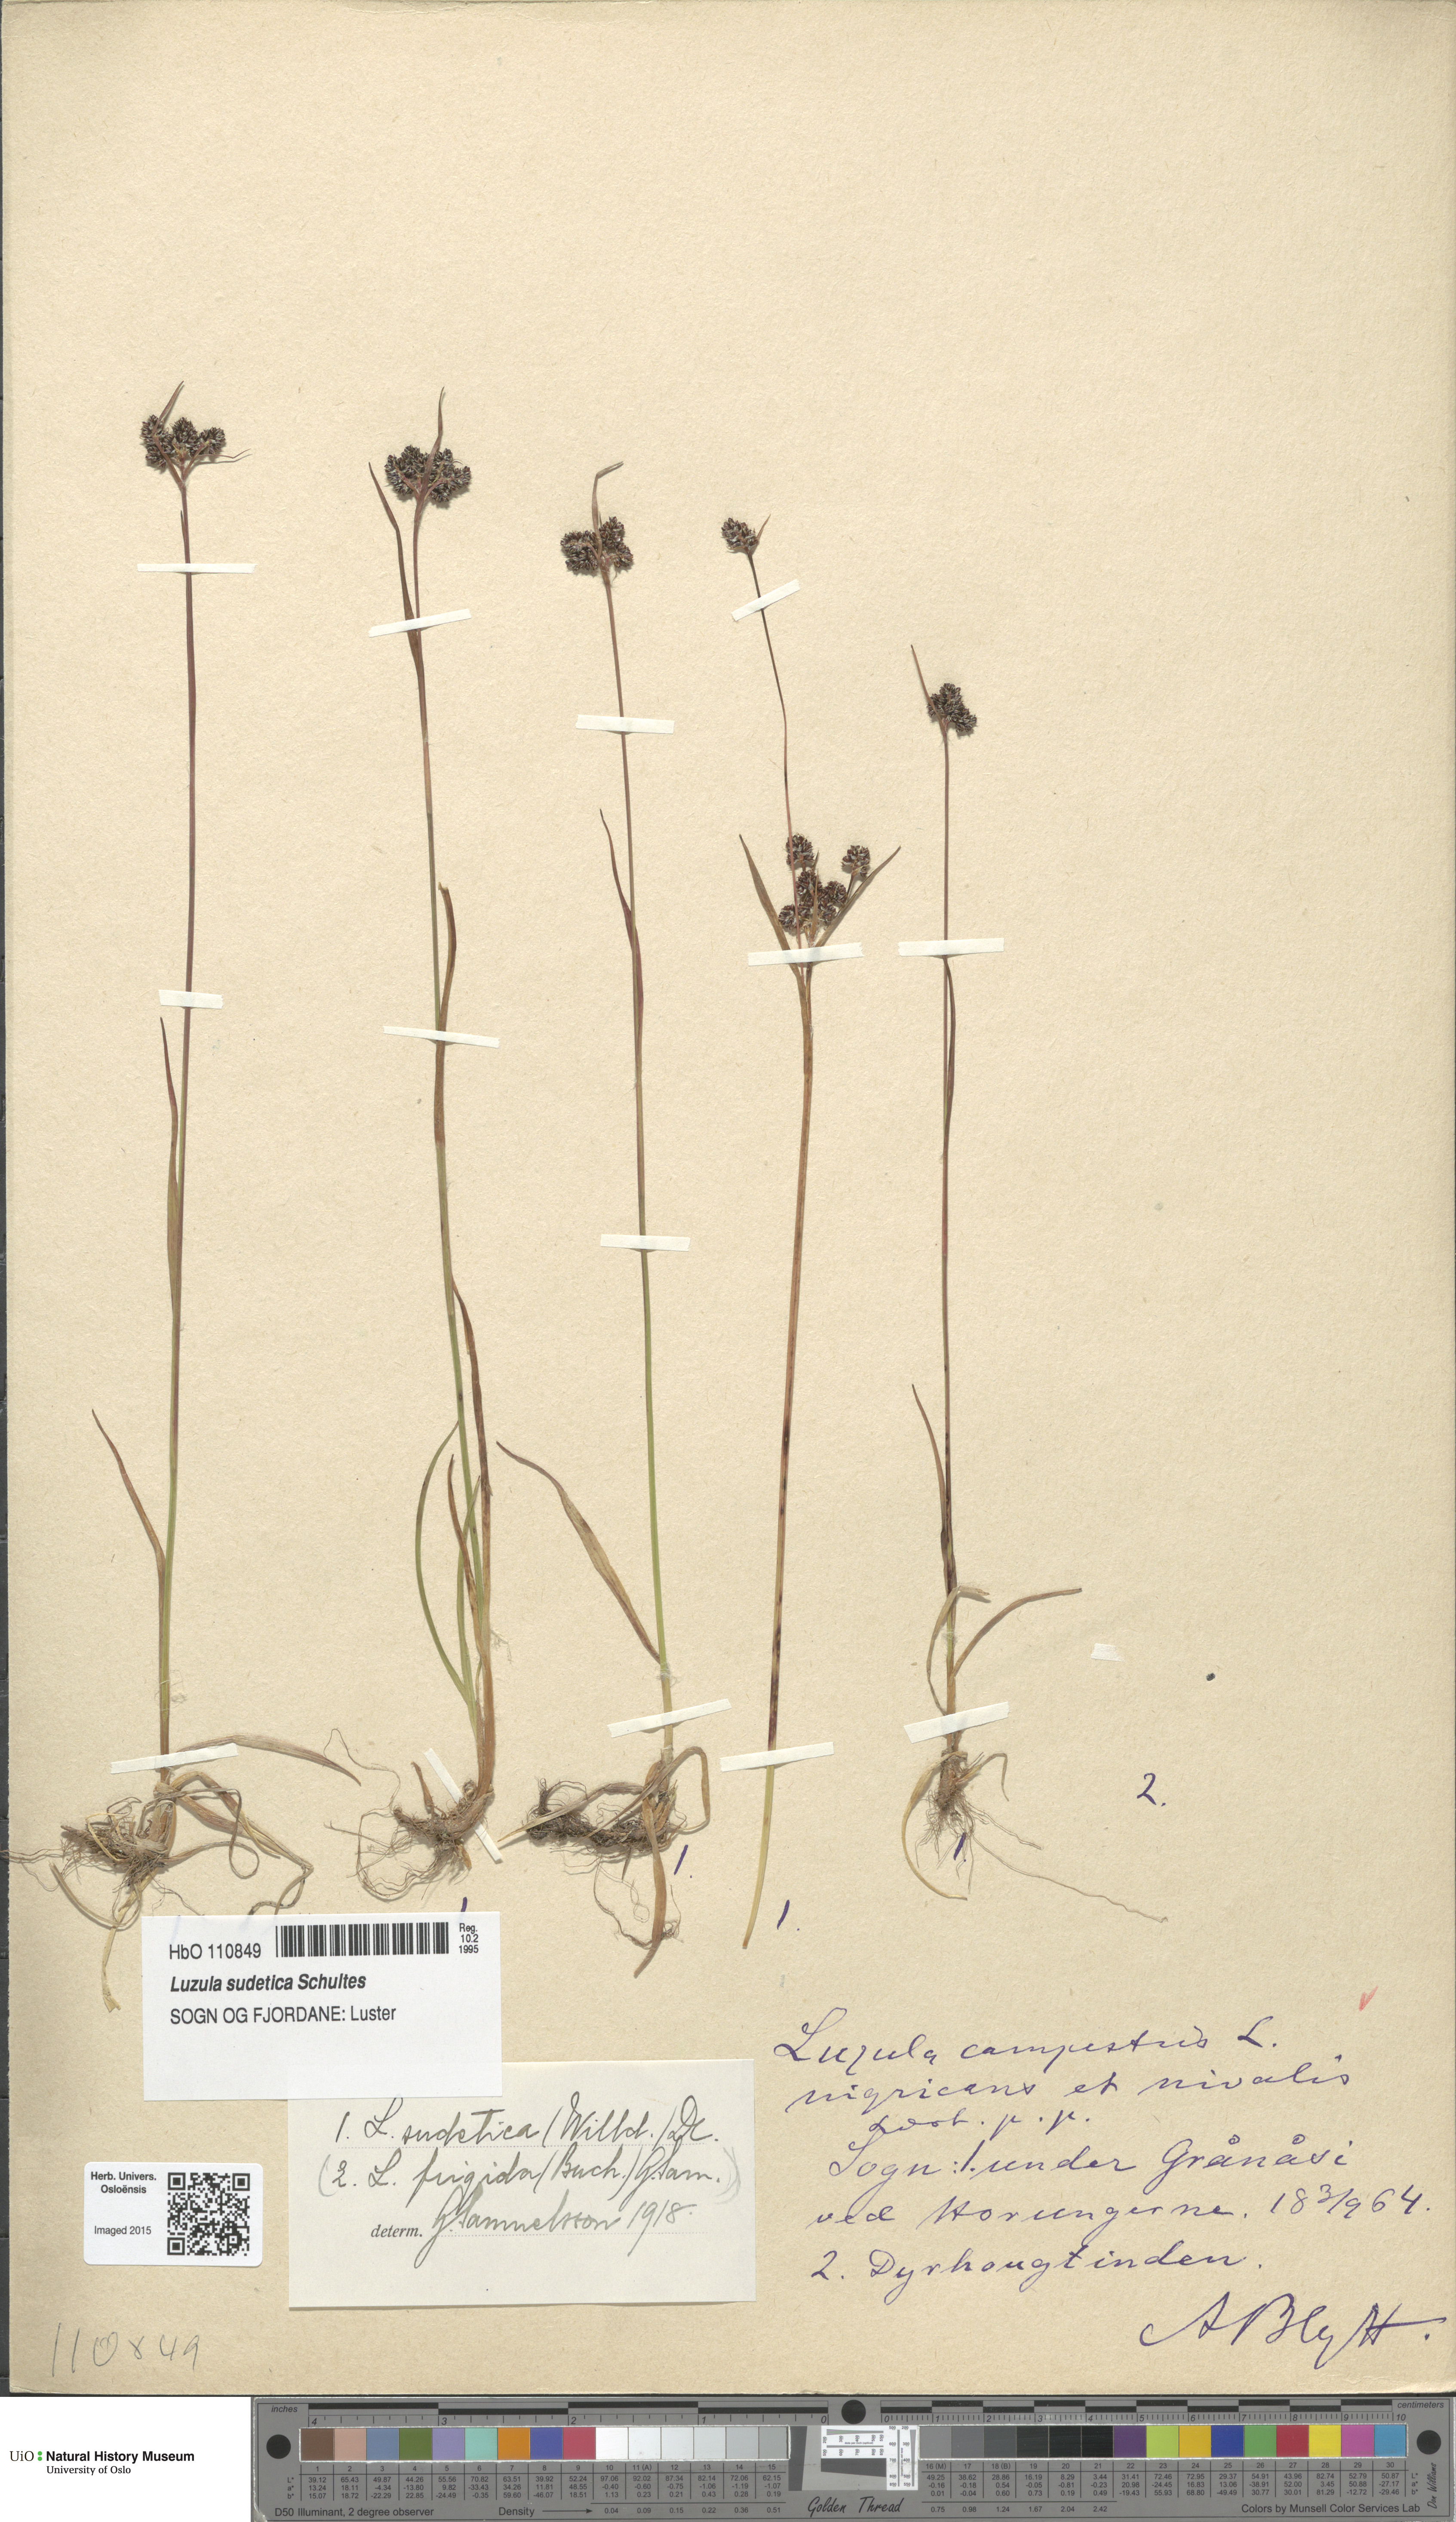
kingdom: Plantae
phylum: Tracheophyta
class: Liliopsida
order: Poales
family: Juncaceae
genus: Luzula
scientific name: Luzula sudetica
